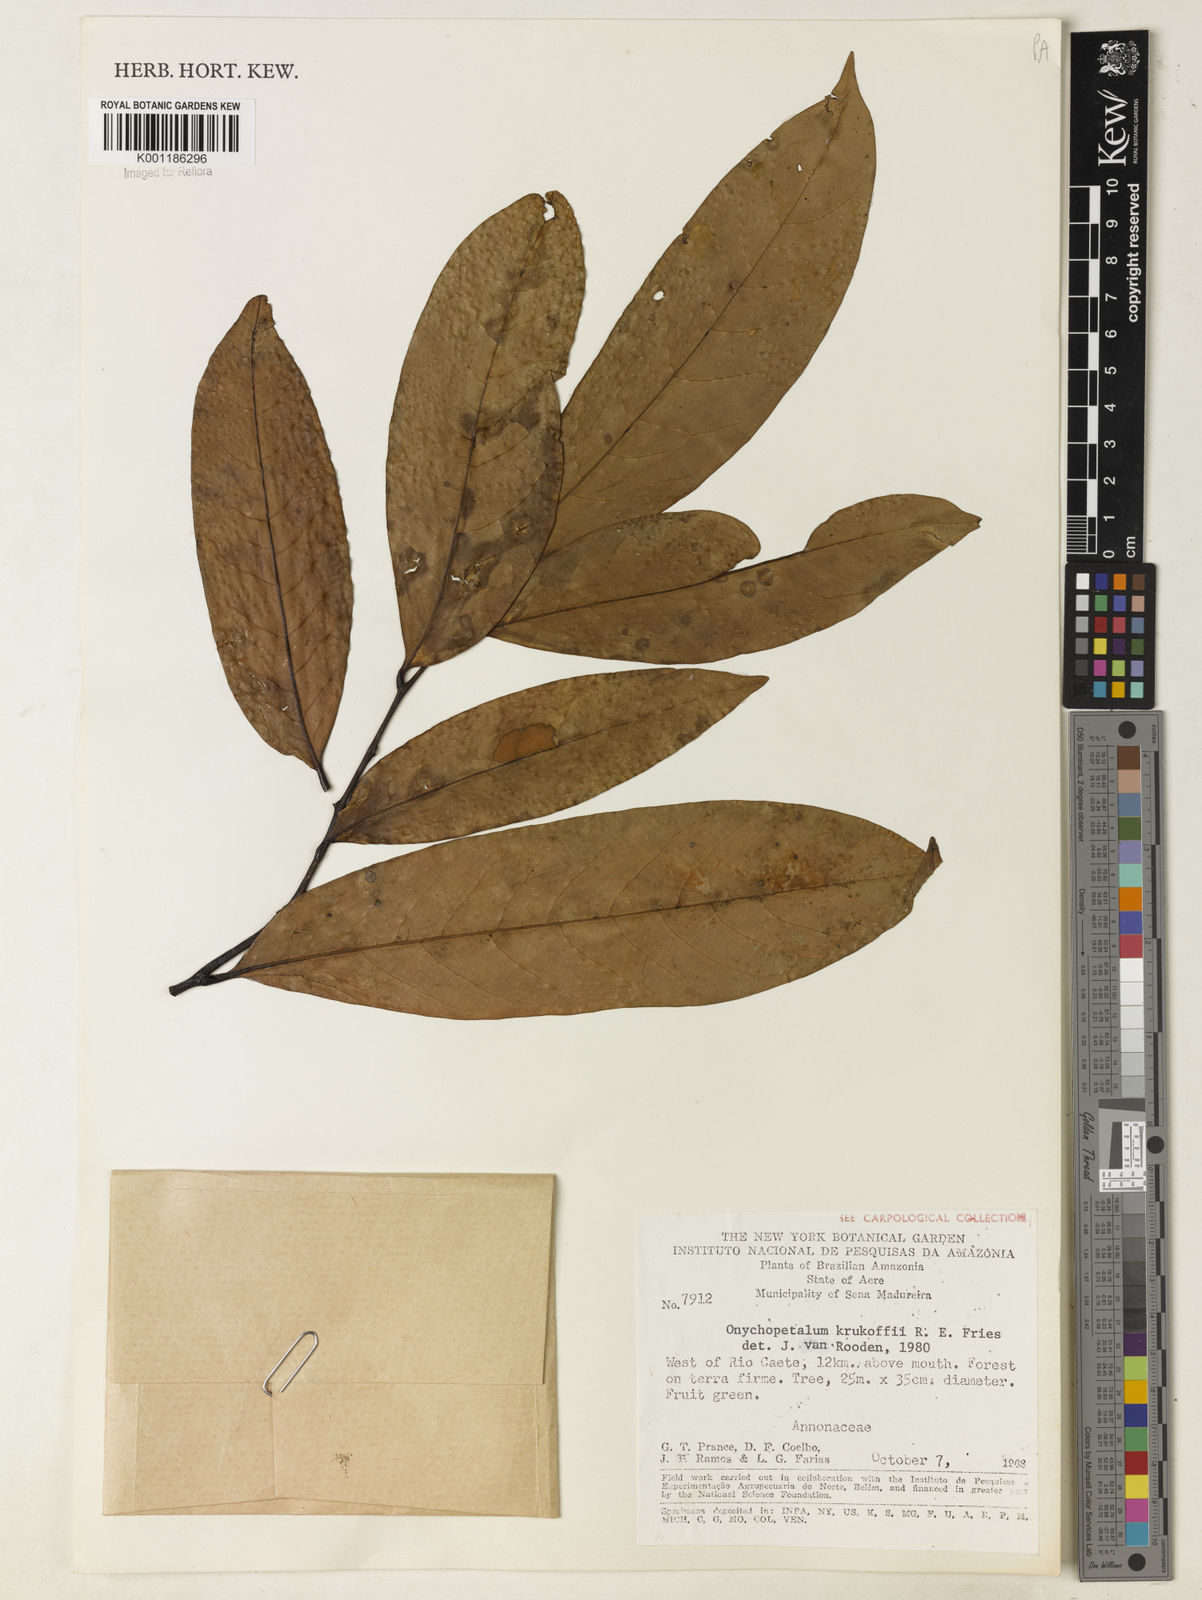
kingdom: Plantae
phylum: Tracheophyta
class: Magnoliopsida
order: Magnoliales
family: Annonaceae
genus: Onychopetalum
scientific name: Onychopetalum periquino
